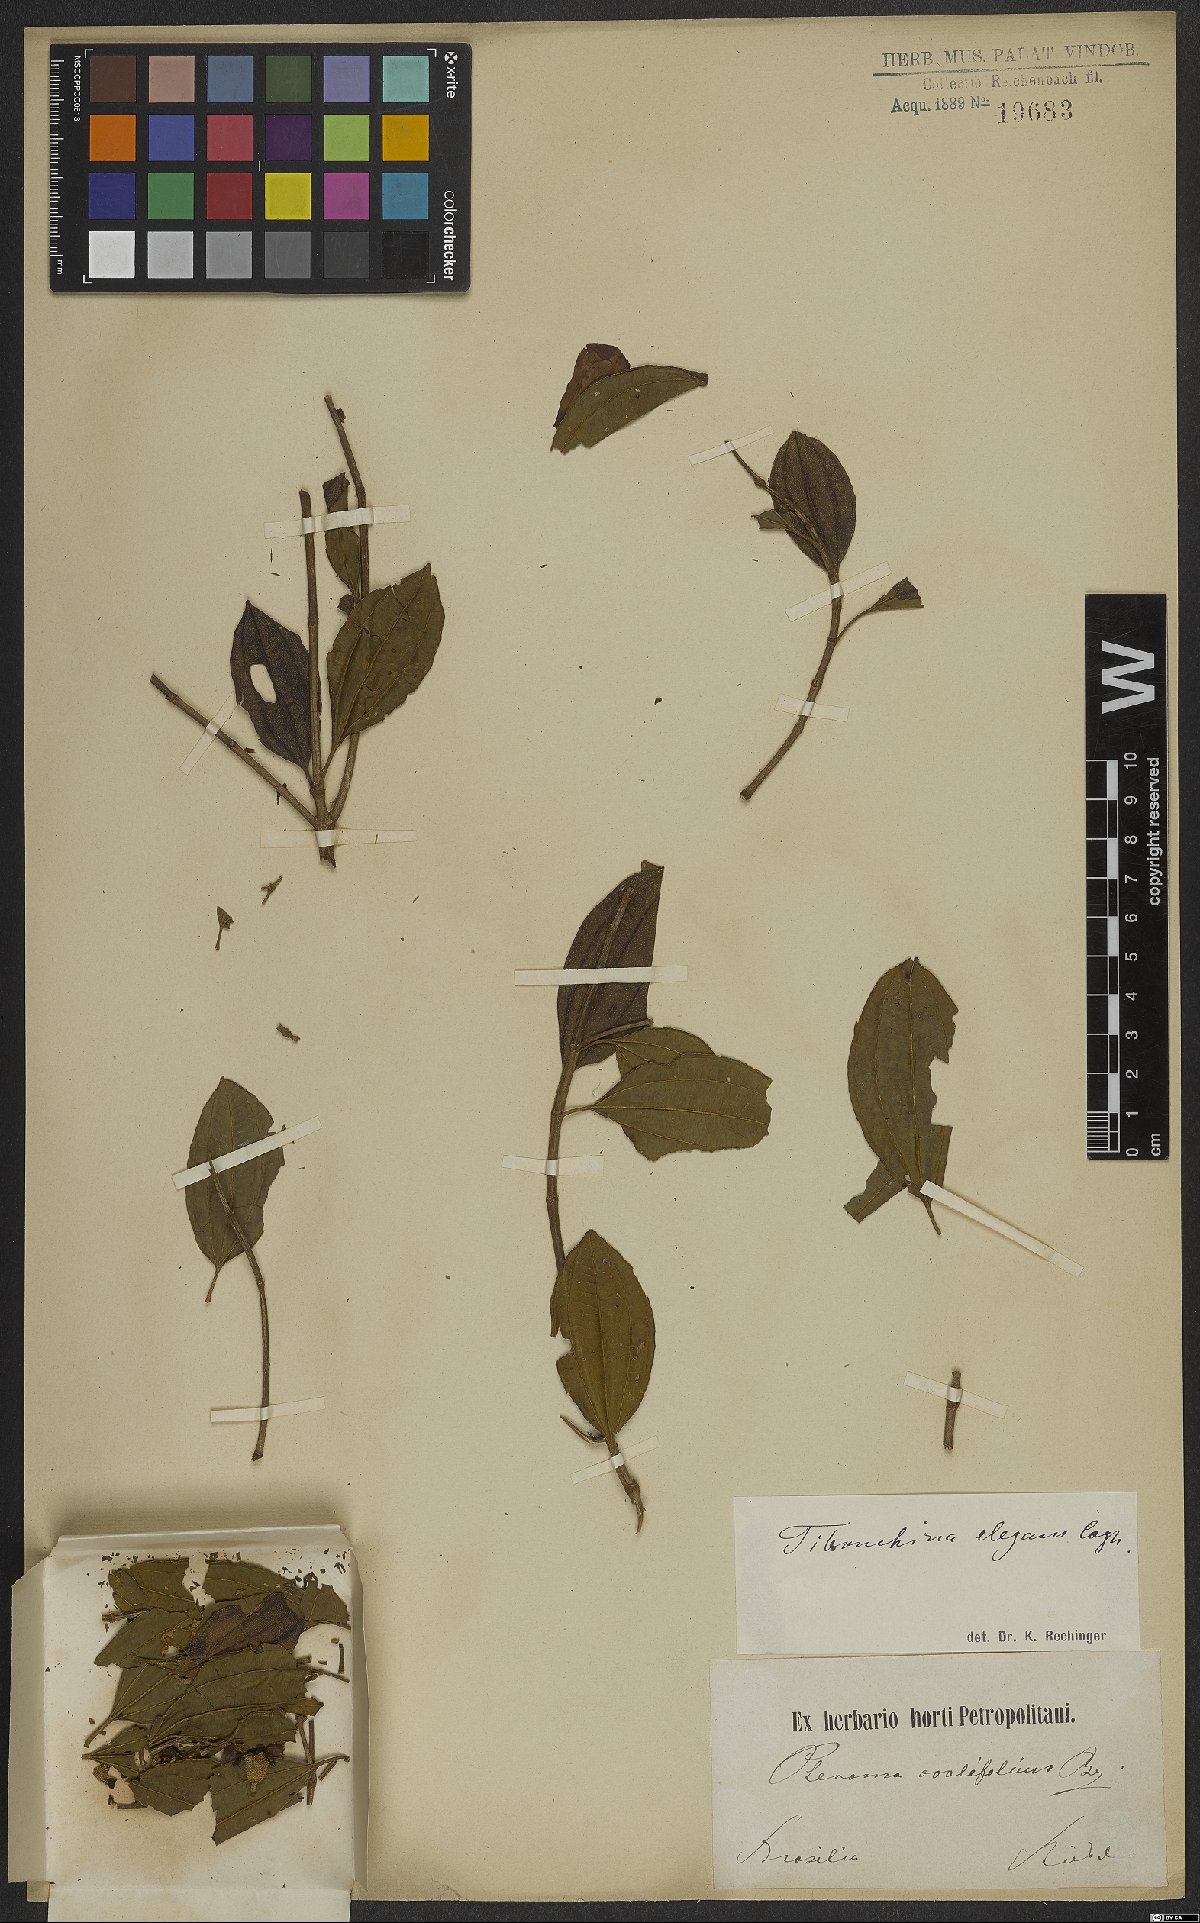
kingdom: Plantae
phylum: Tracheophyta
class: Magnoliopsida
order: Myrtales
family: Melastomataceae
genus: Pleroma
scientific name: Pleroma elegans
